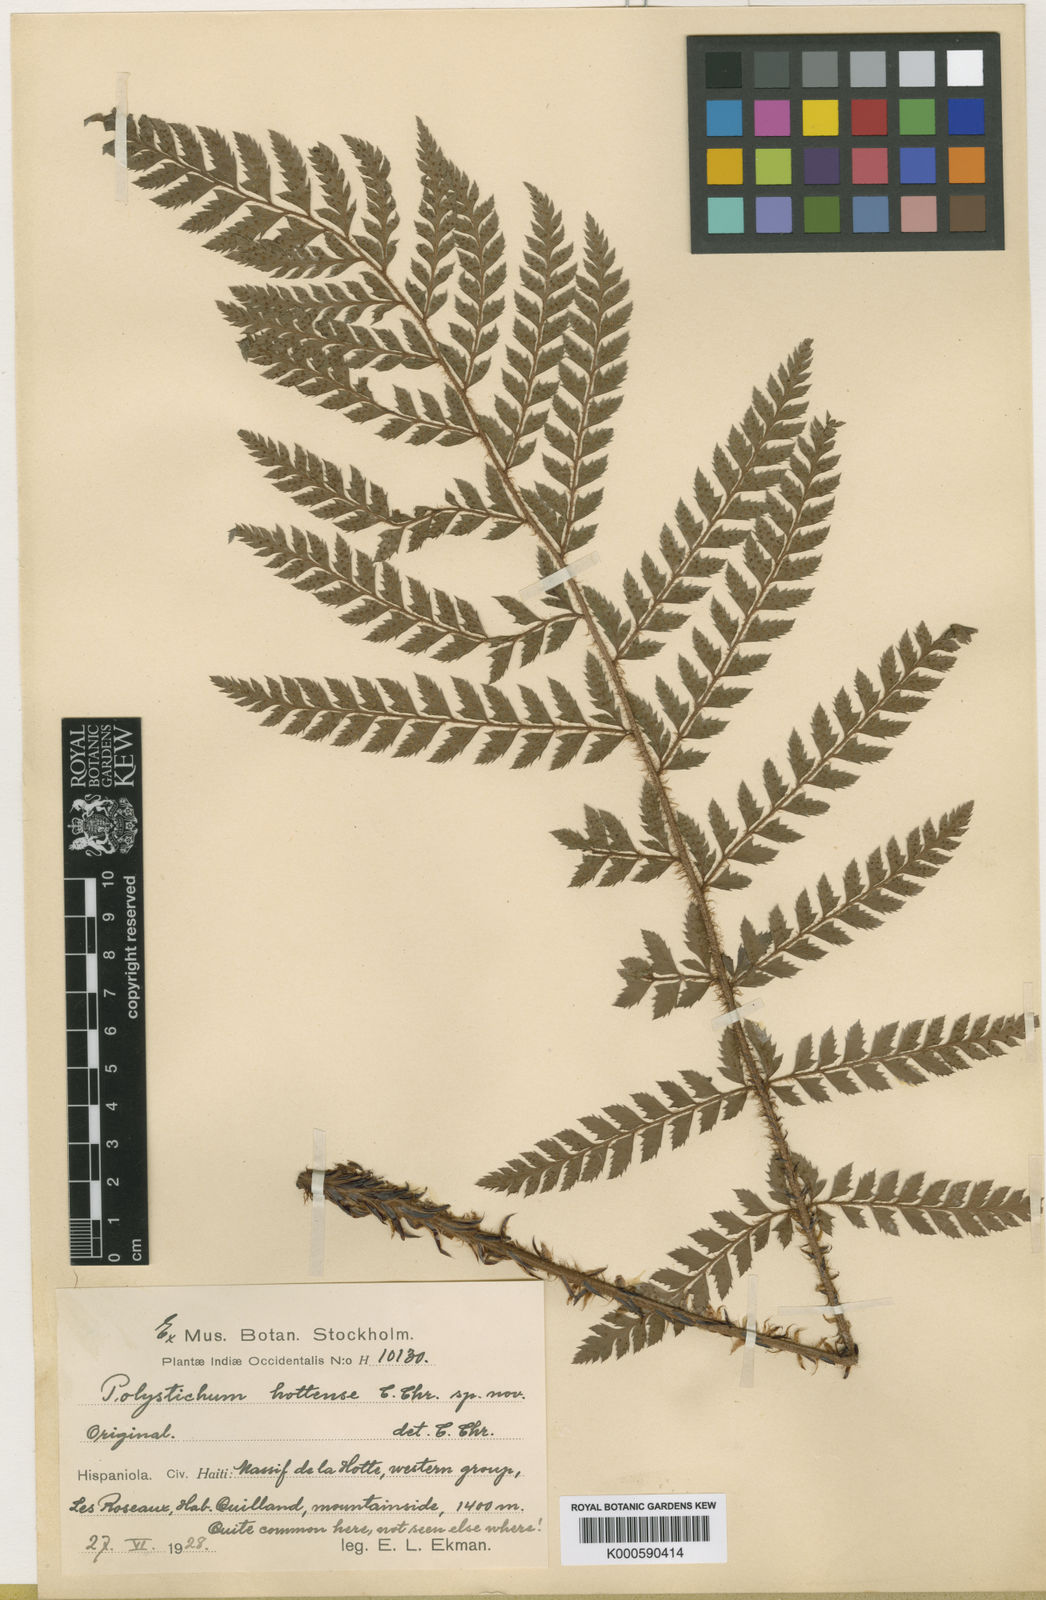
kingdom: Plantae
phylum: Tracheophyta
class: Polypodiopsida
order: Polypodiales
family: Dryopteridaceae
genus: Polystichum
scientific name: Polystichum platyphyllum
